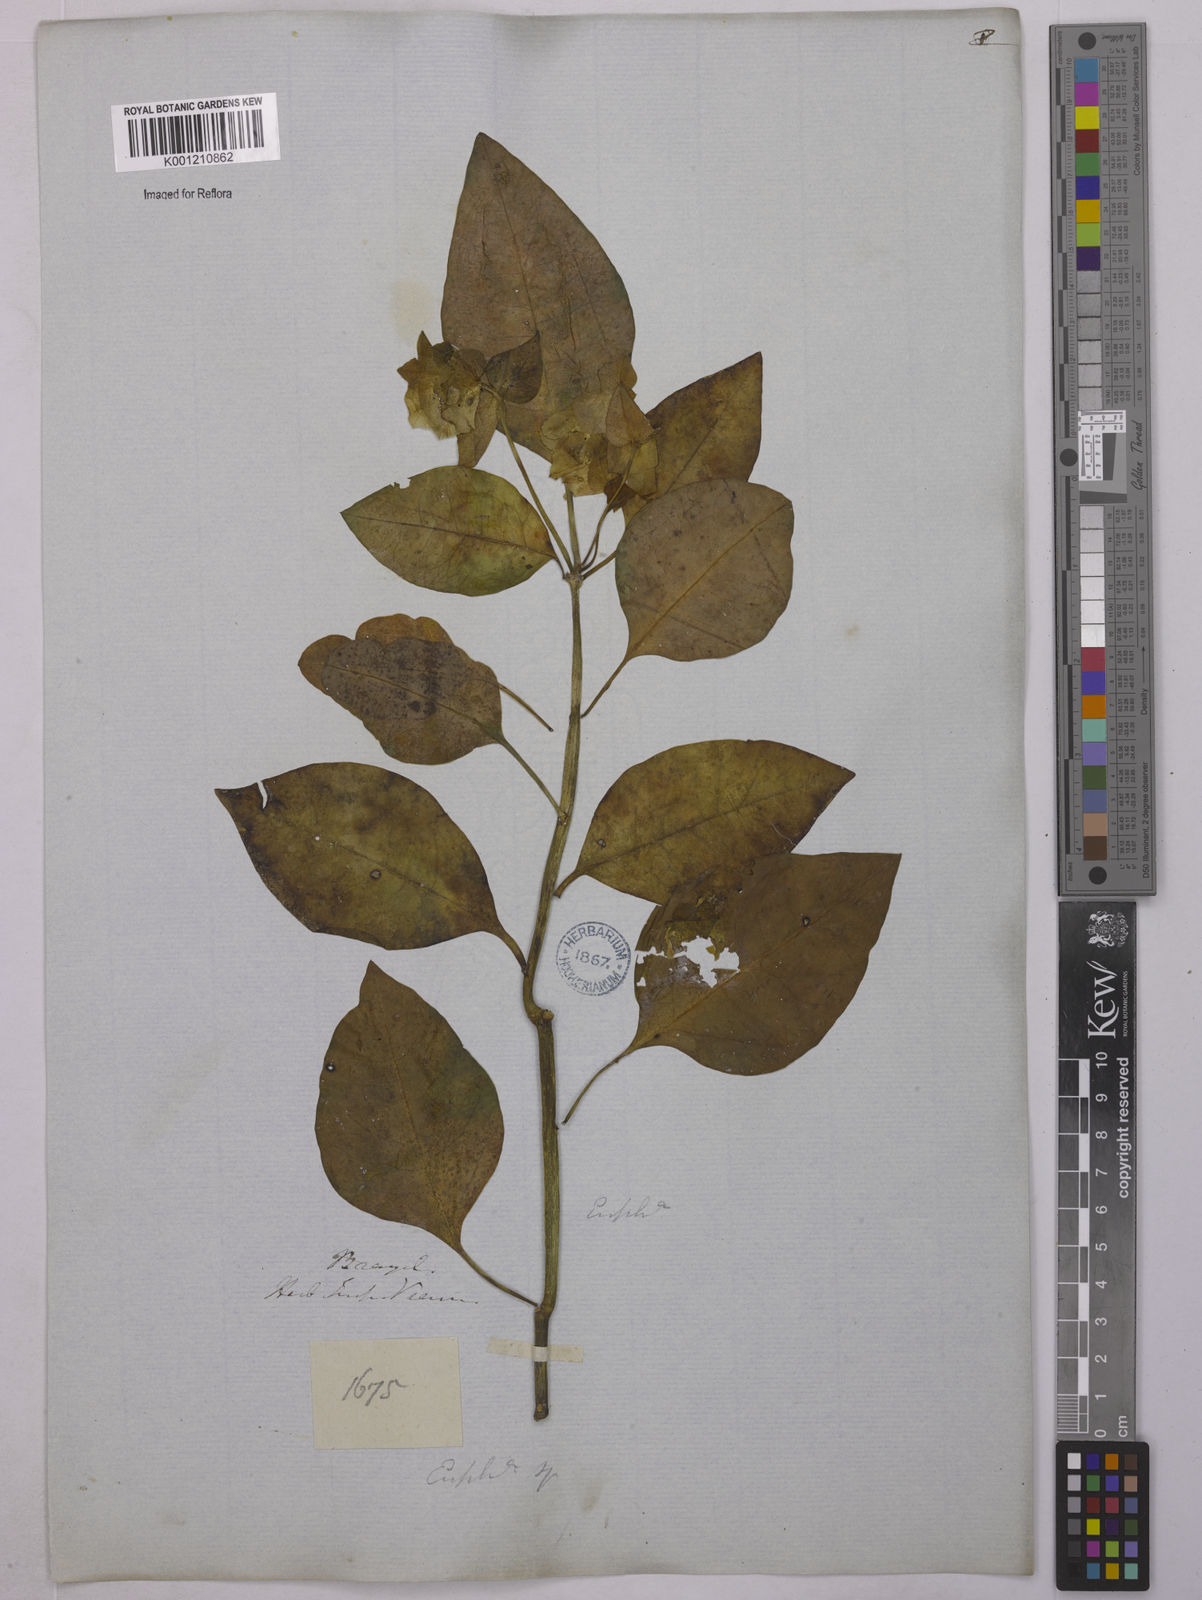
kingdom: Plantae
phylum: Tracheophyta
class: Magnoliopsida
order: Malpighiales
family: Euphorbiaceae
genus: Euphorbia
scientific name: Euphorbia comosa
